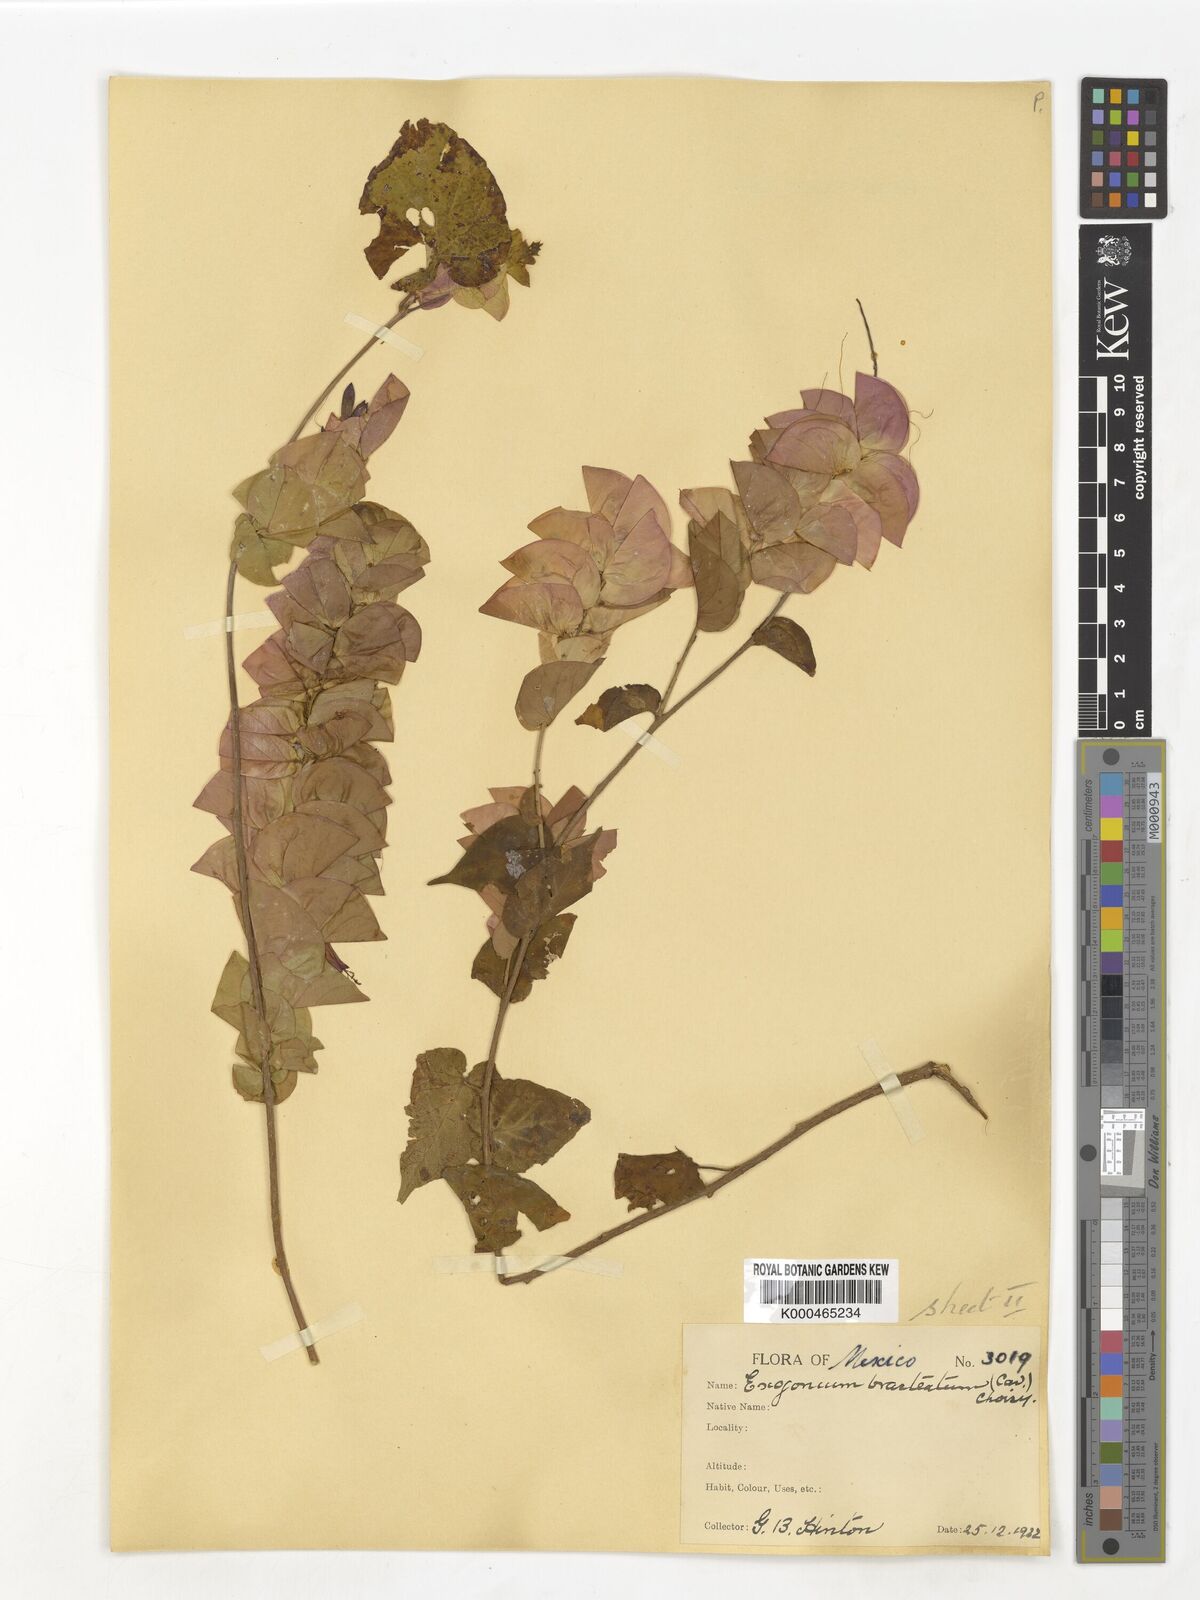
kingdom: Plantae
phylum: Tracheophyta
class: Magnoliopsida
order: Solanales
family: Convolvulaceae
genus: Ipomoea
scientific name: Ipomoea bracteata
